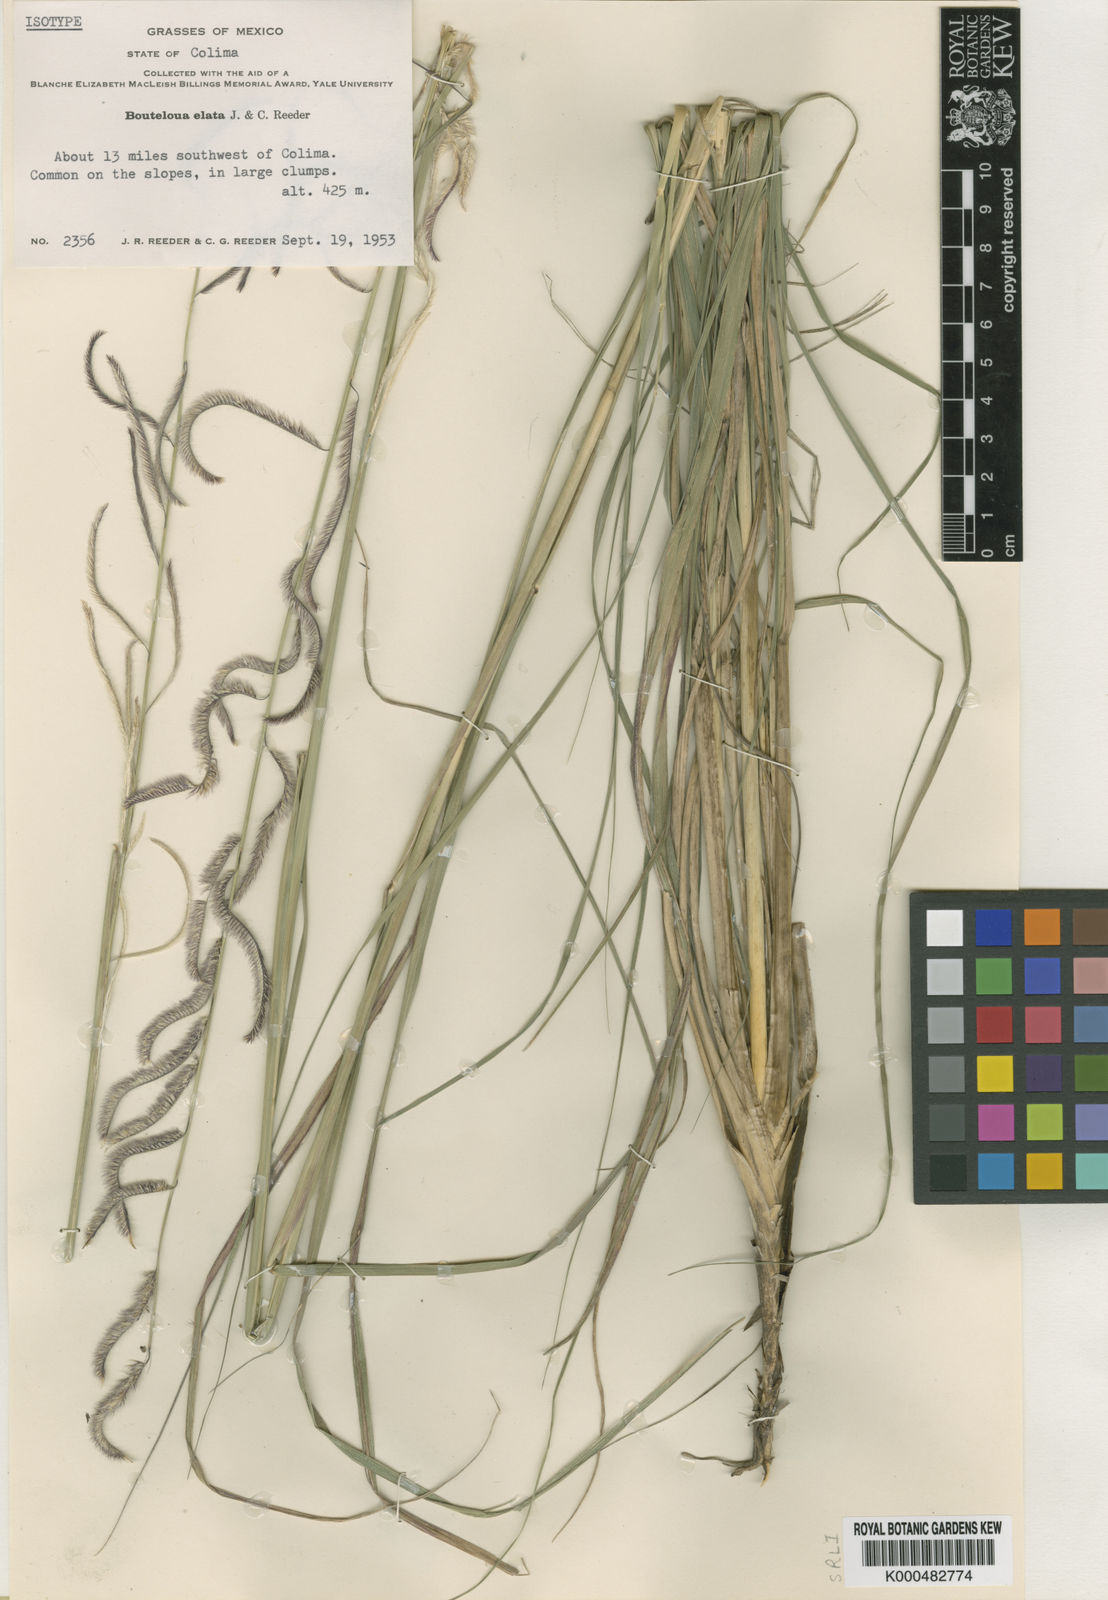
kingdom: Plantae
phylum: Tracheophyta
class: Liliopsida
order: Poales
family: Poaceae
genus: Bouteloua
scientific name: Bouteloua elata
